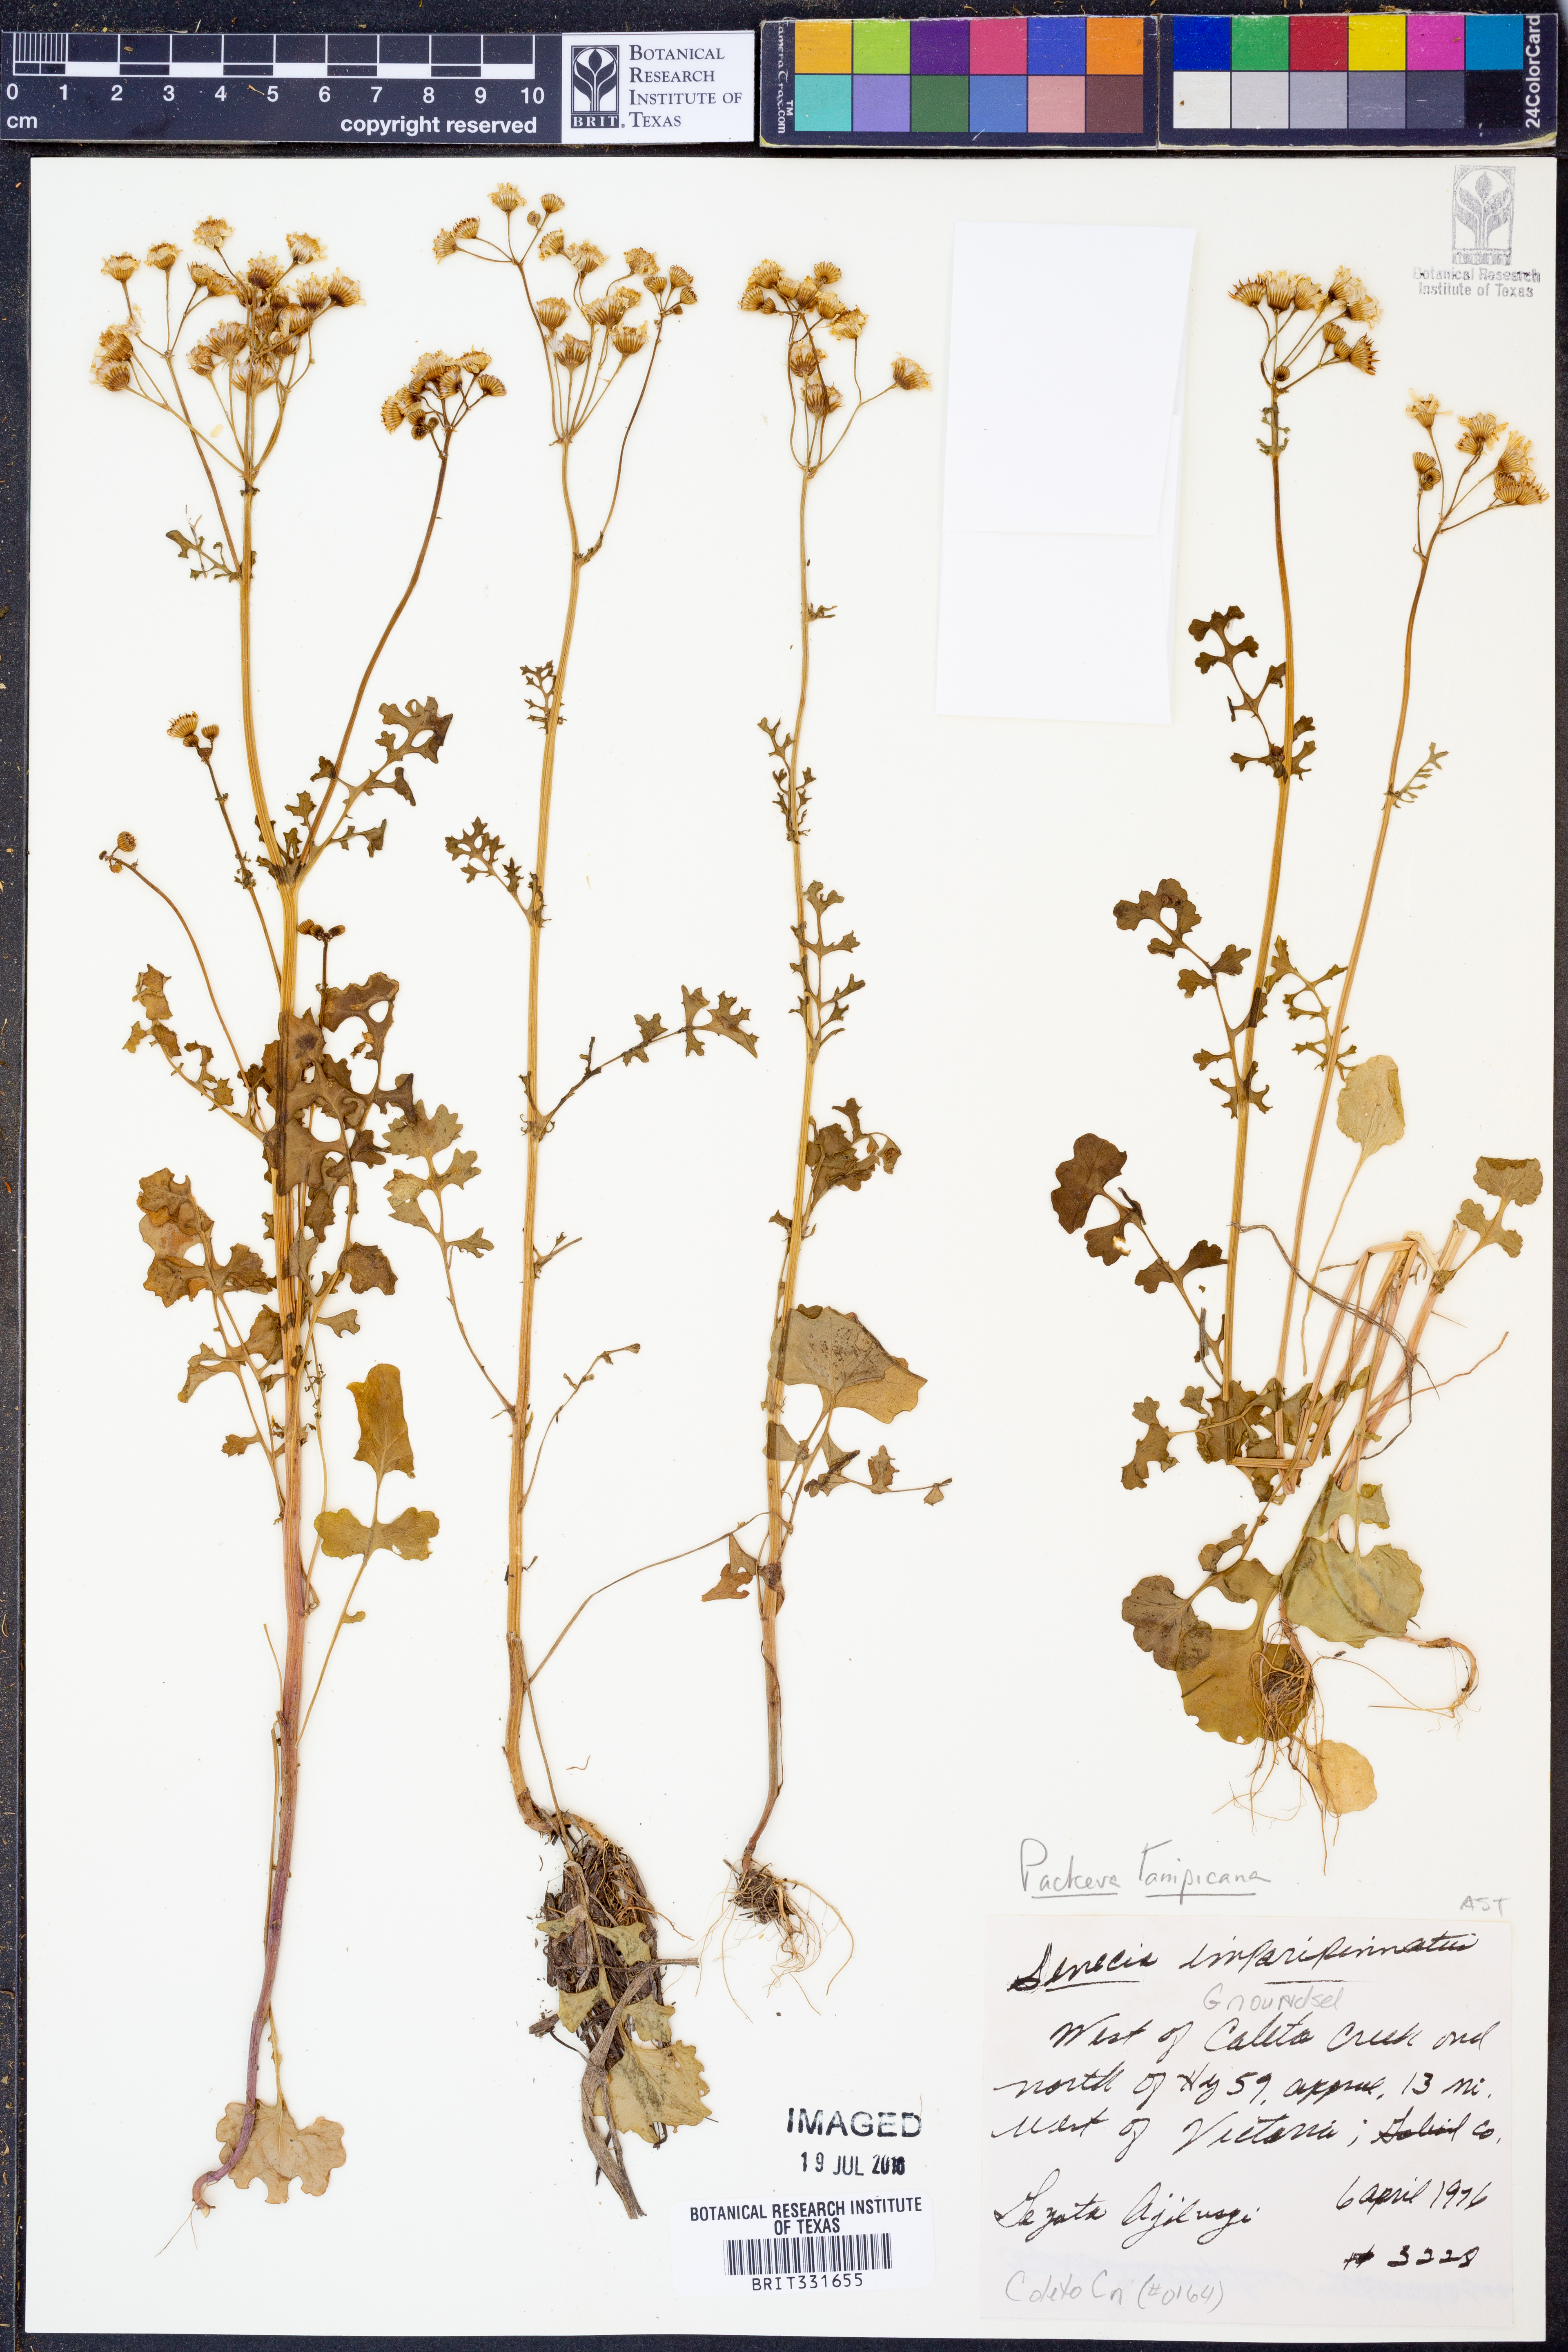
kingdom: Plantae
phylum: Tracheophyta
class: Magnoliopsida
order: Asterales
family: Asteraceae
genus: Packera
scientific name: Packera tampicana
